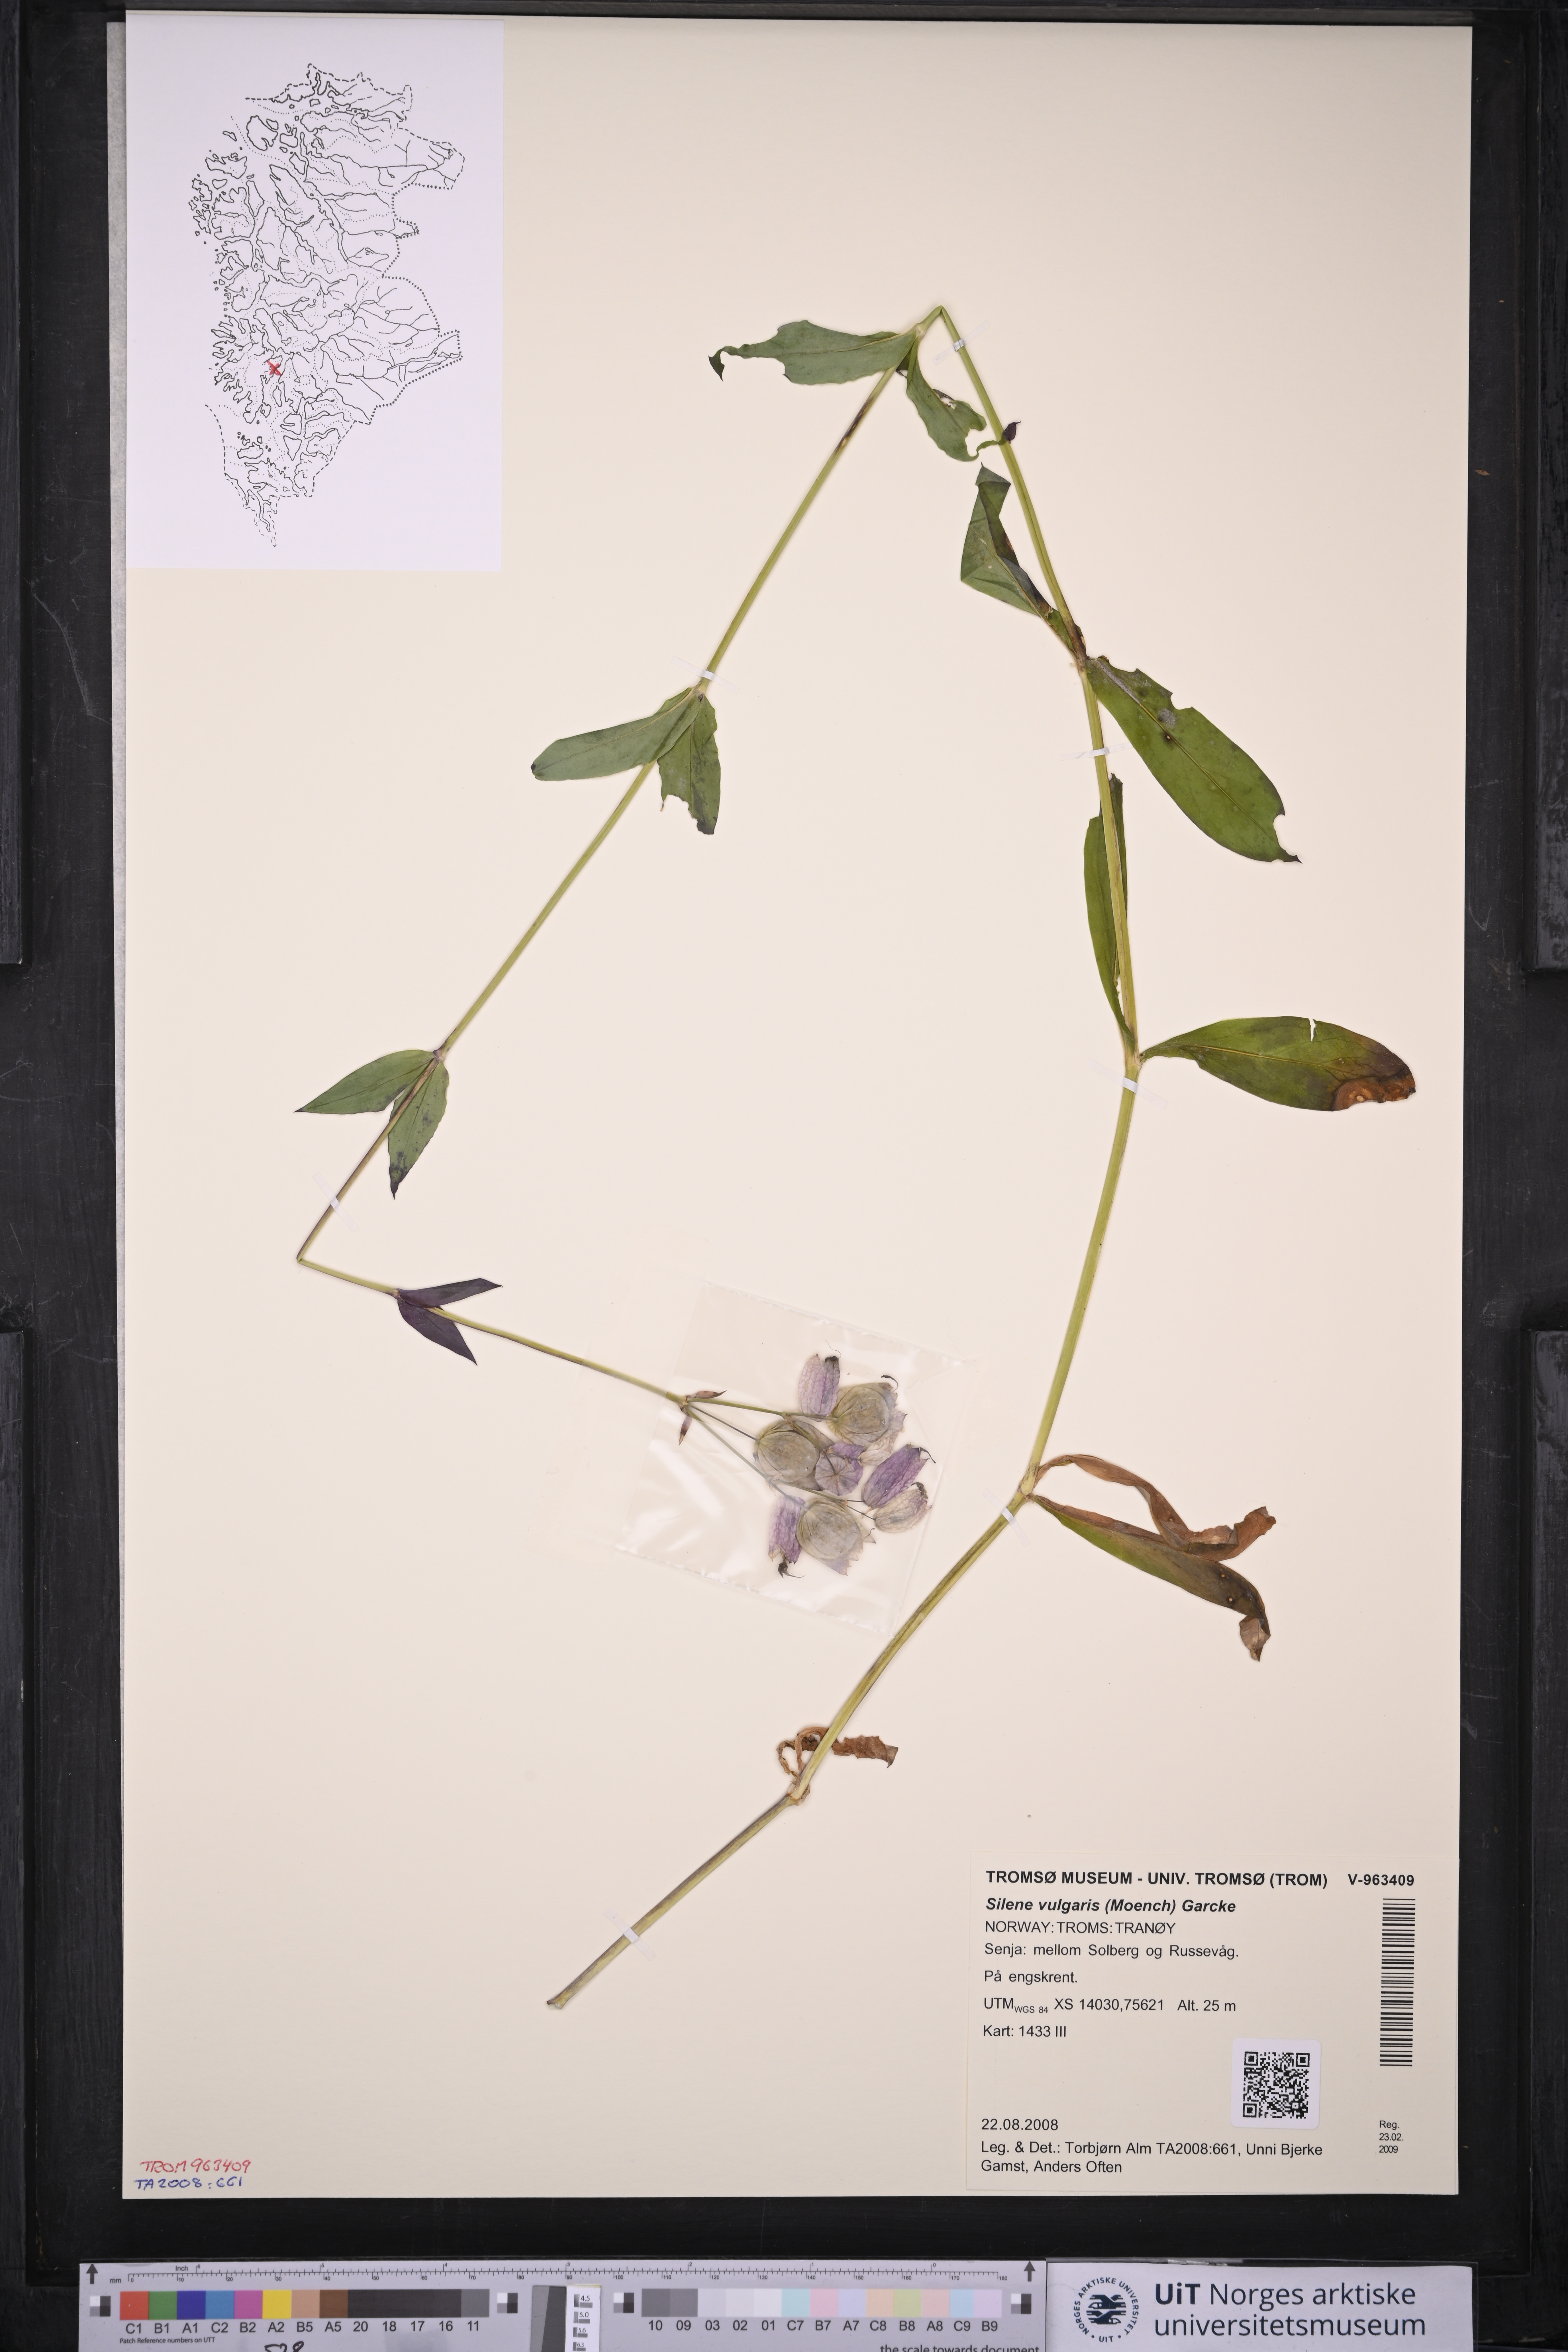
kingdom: Plantae
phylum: Tracheophyta
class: Magnoliopsida
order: Caryophyllales
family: Caryophyllaceae
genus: Silene
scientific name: Silene vulgaris
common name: Bladder campion
